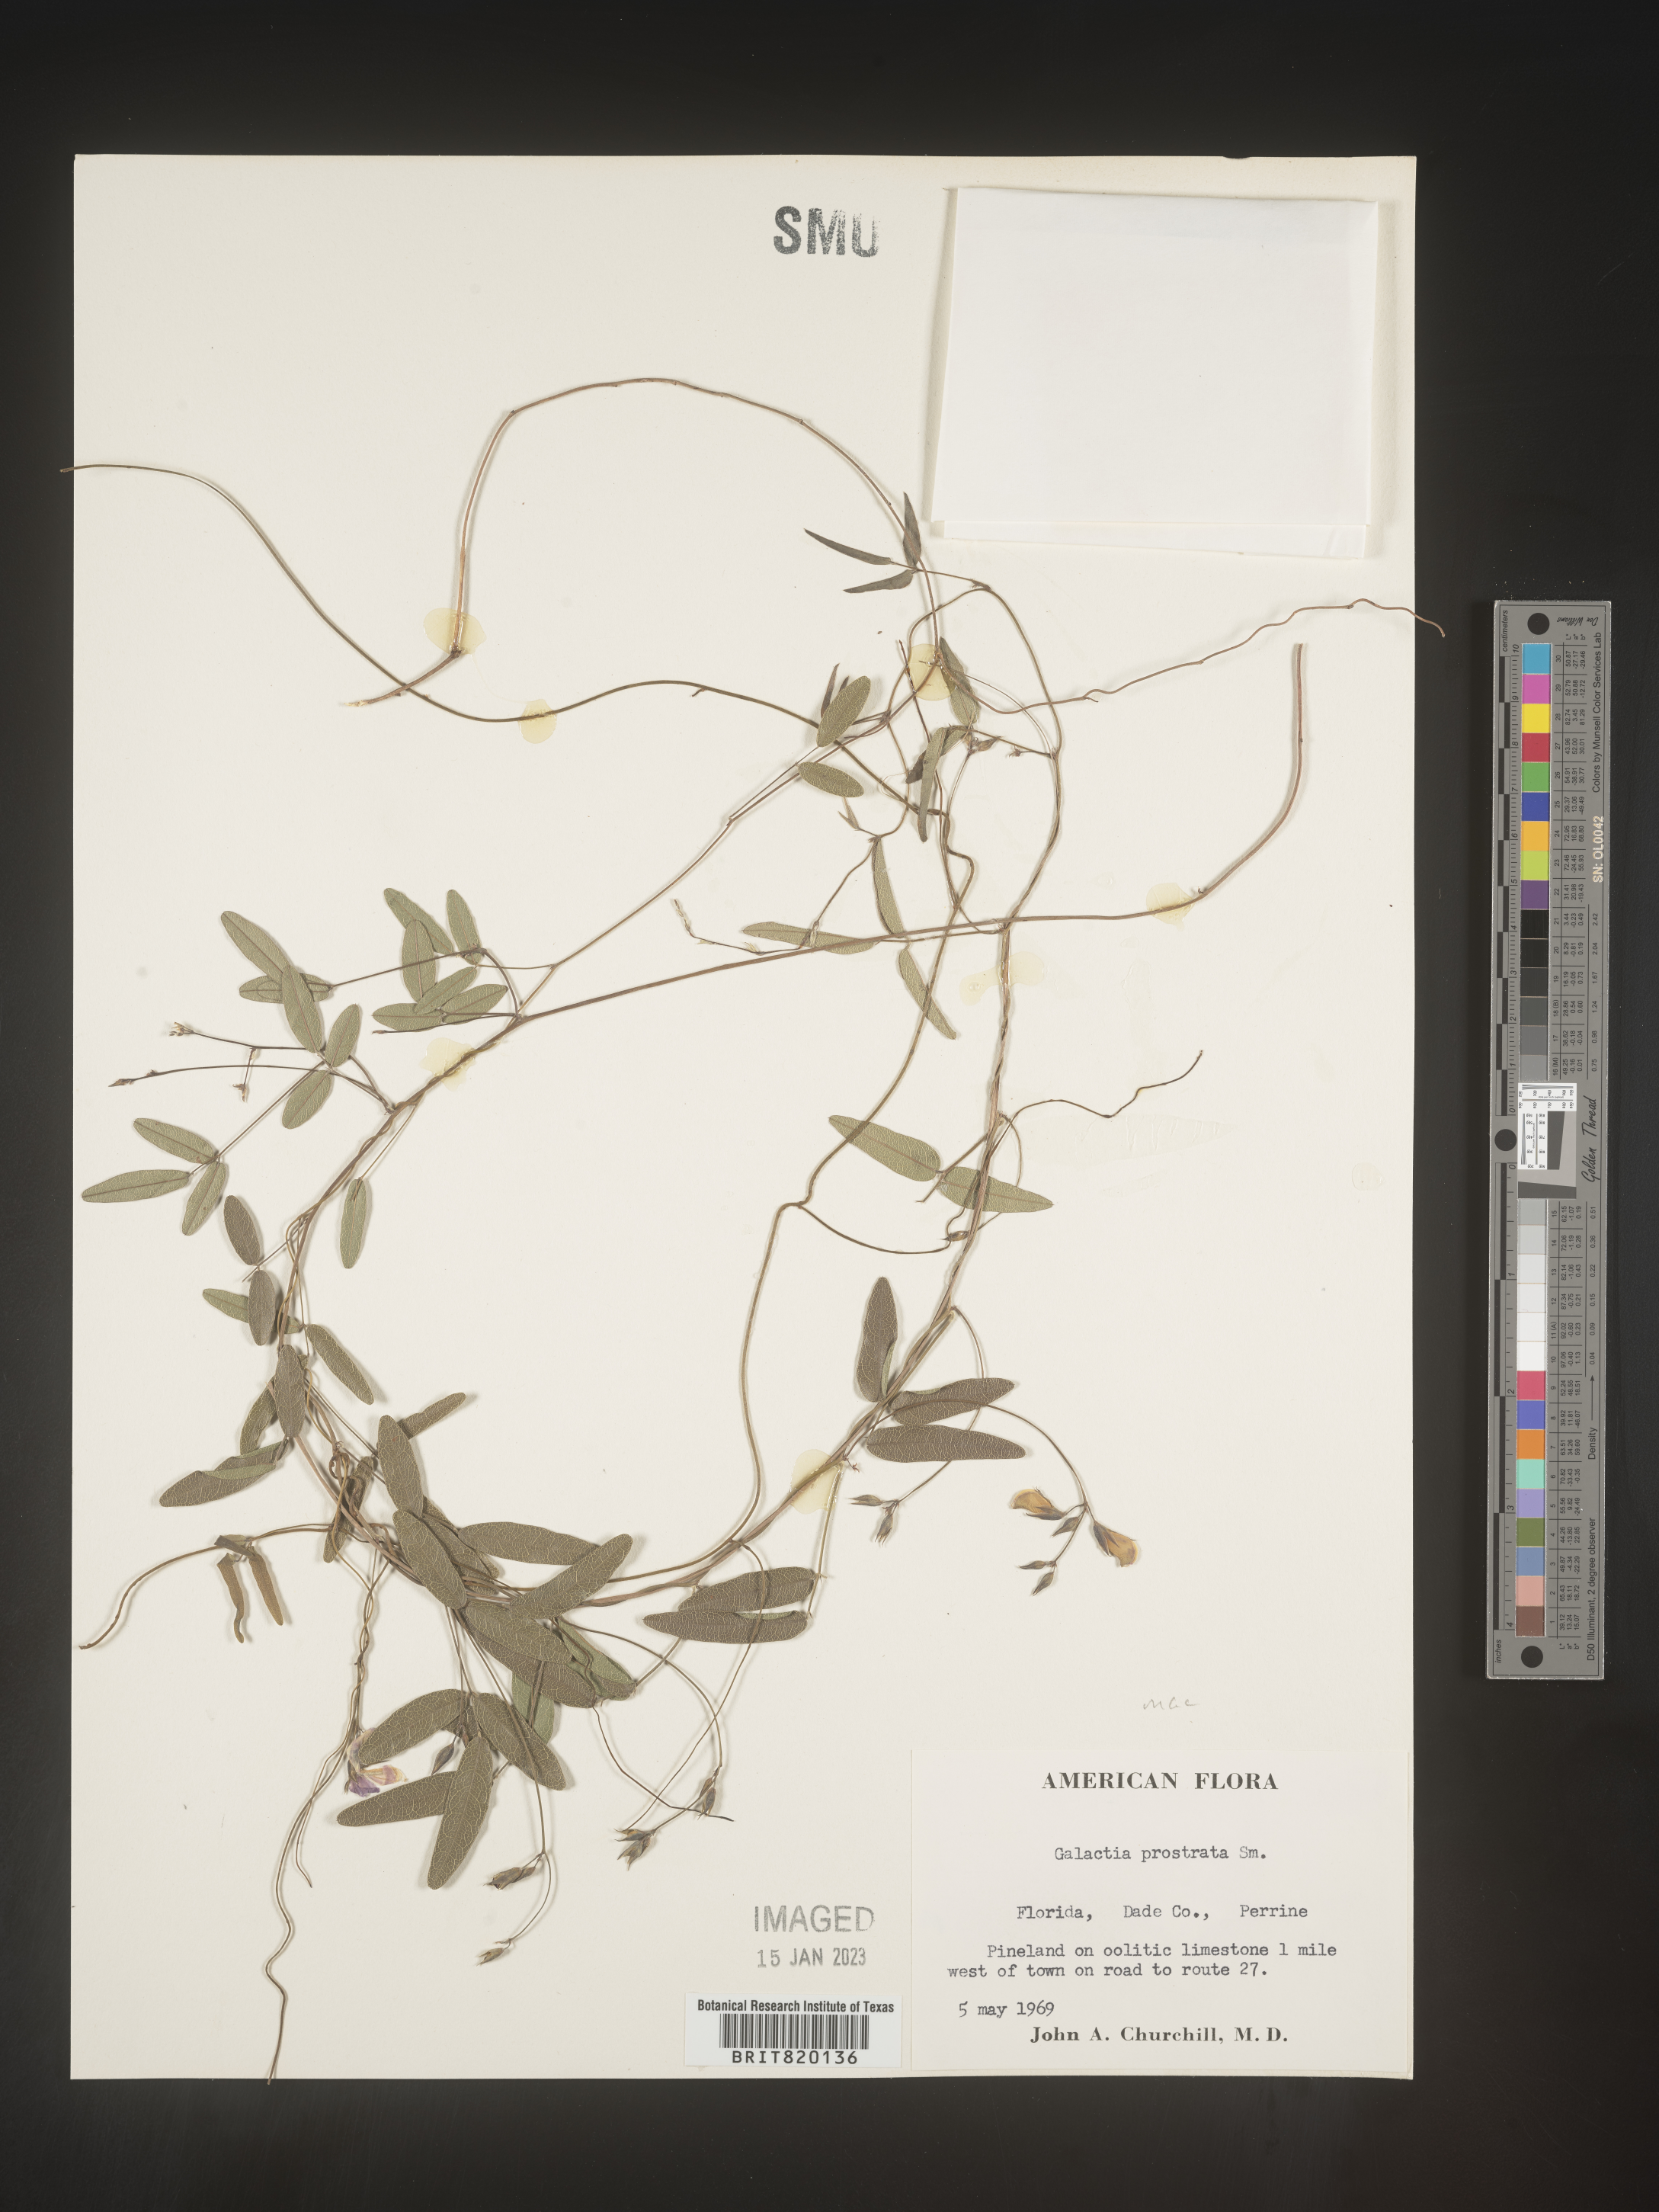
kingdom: Plantae
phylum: Tracheophyta
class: Magnoliopsida
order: Fabales
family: Fabaceae
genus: Galactia
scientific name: Galactia
